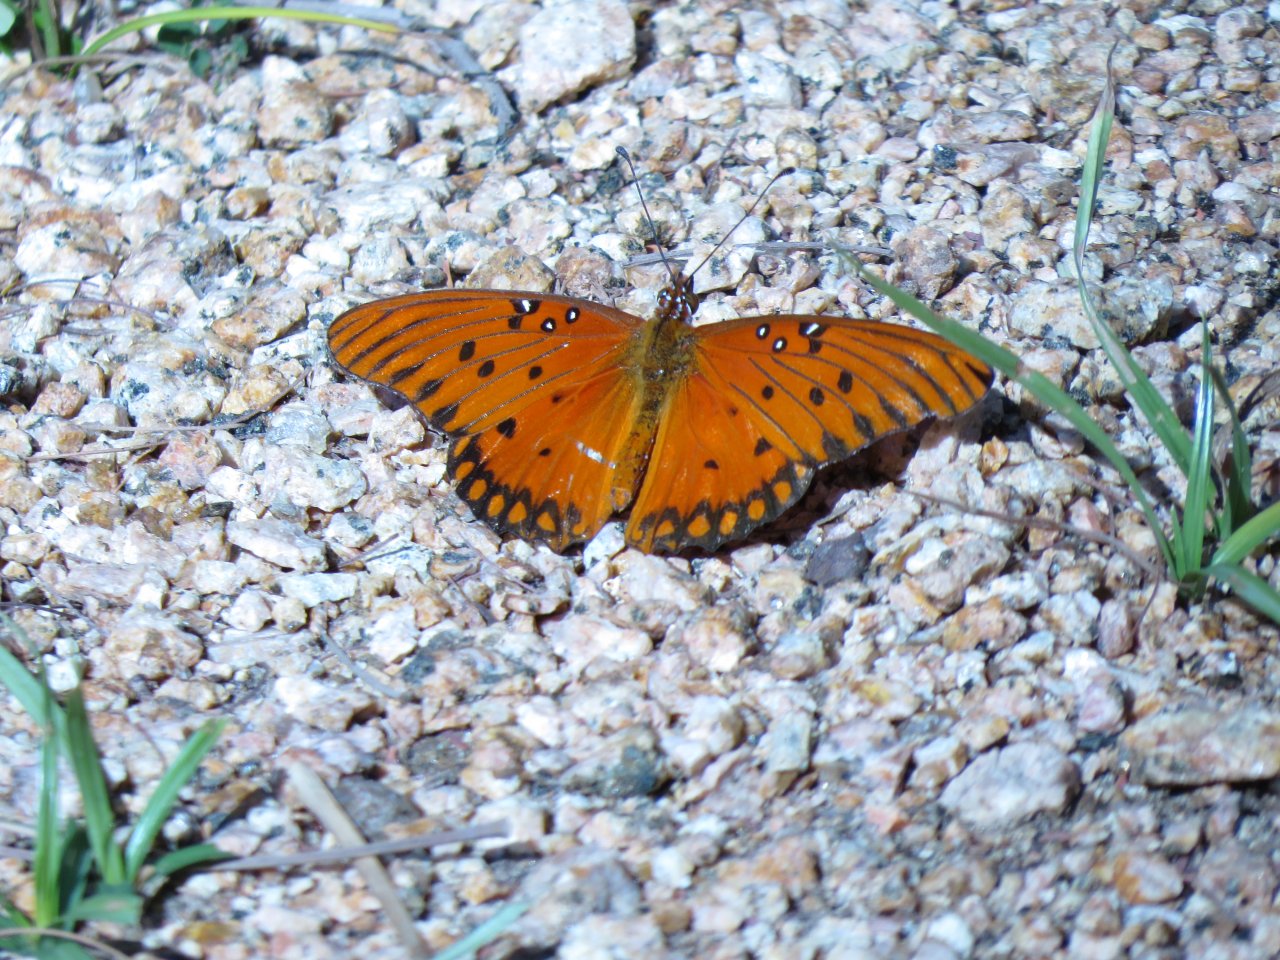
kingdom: Animalia
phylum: Arthropoda
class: Insecta
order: Lepidoptera
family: Nymphalidae
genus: Dione
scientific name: Dione vanillae
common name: Gulf Fritillary
